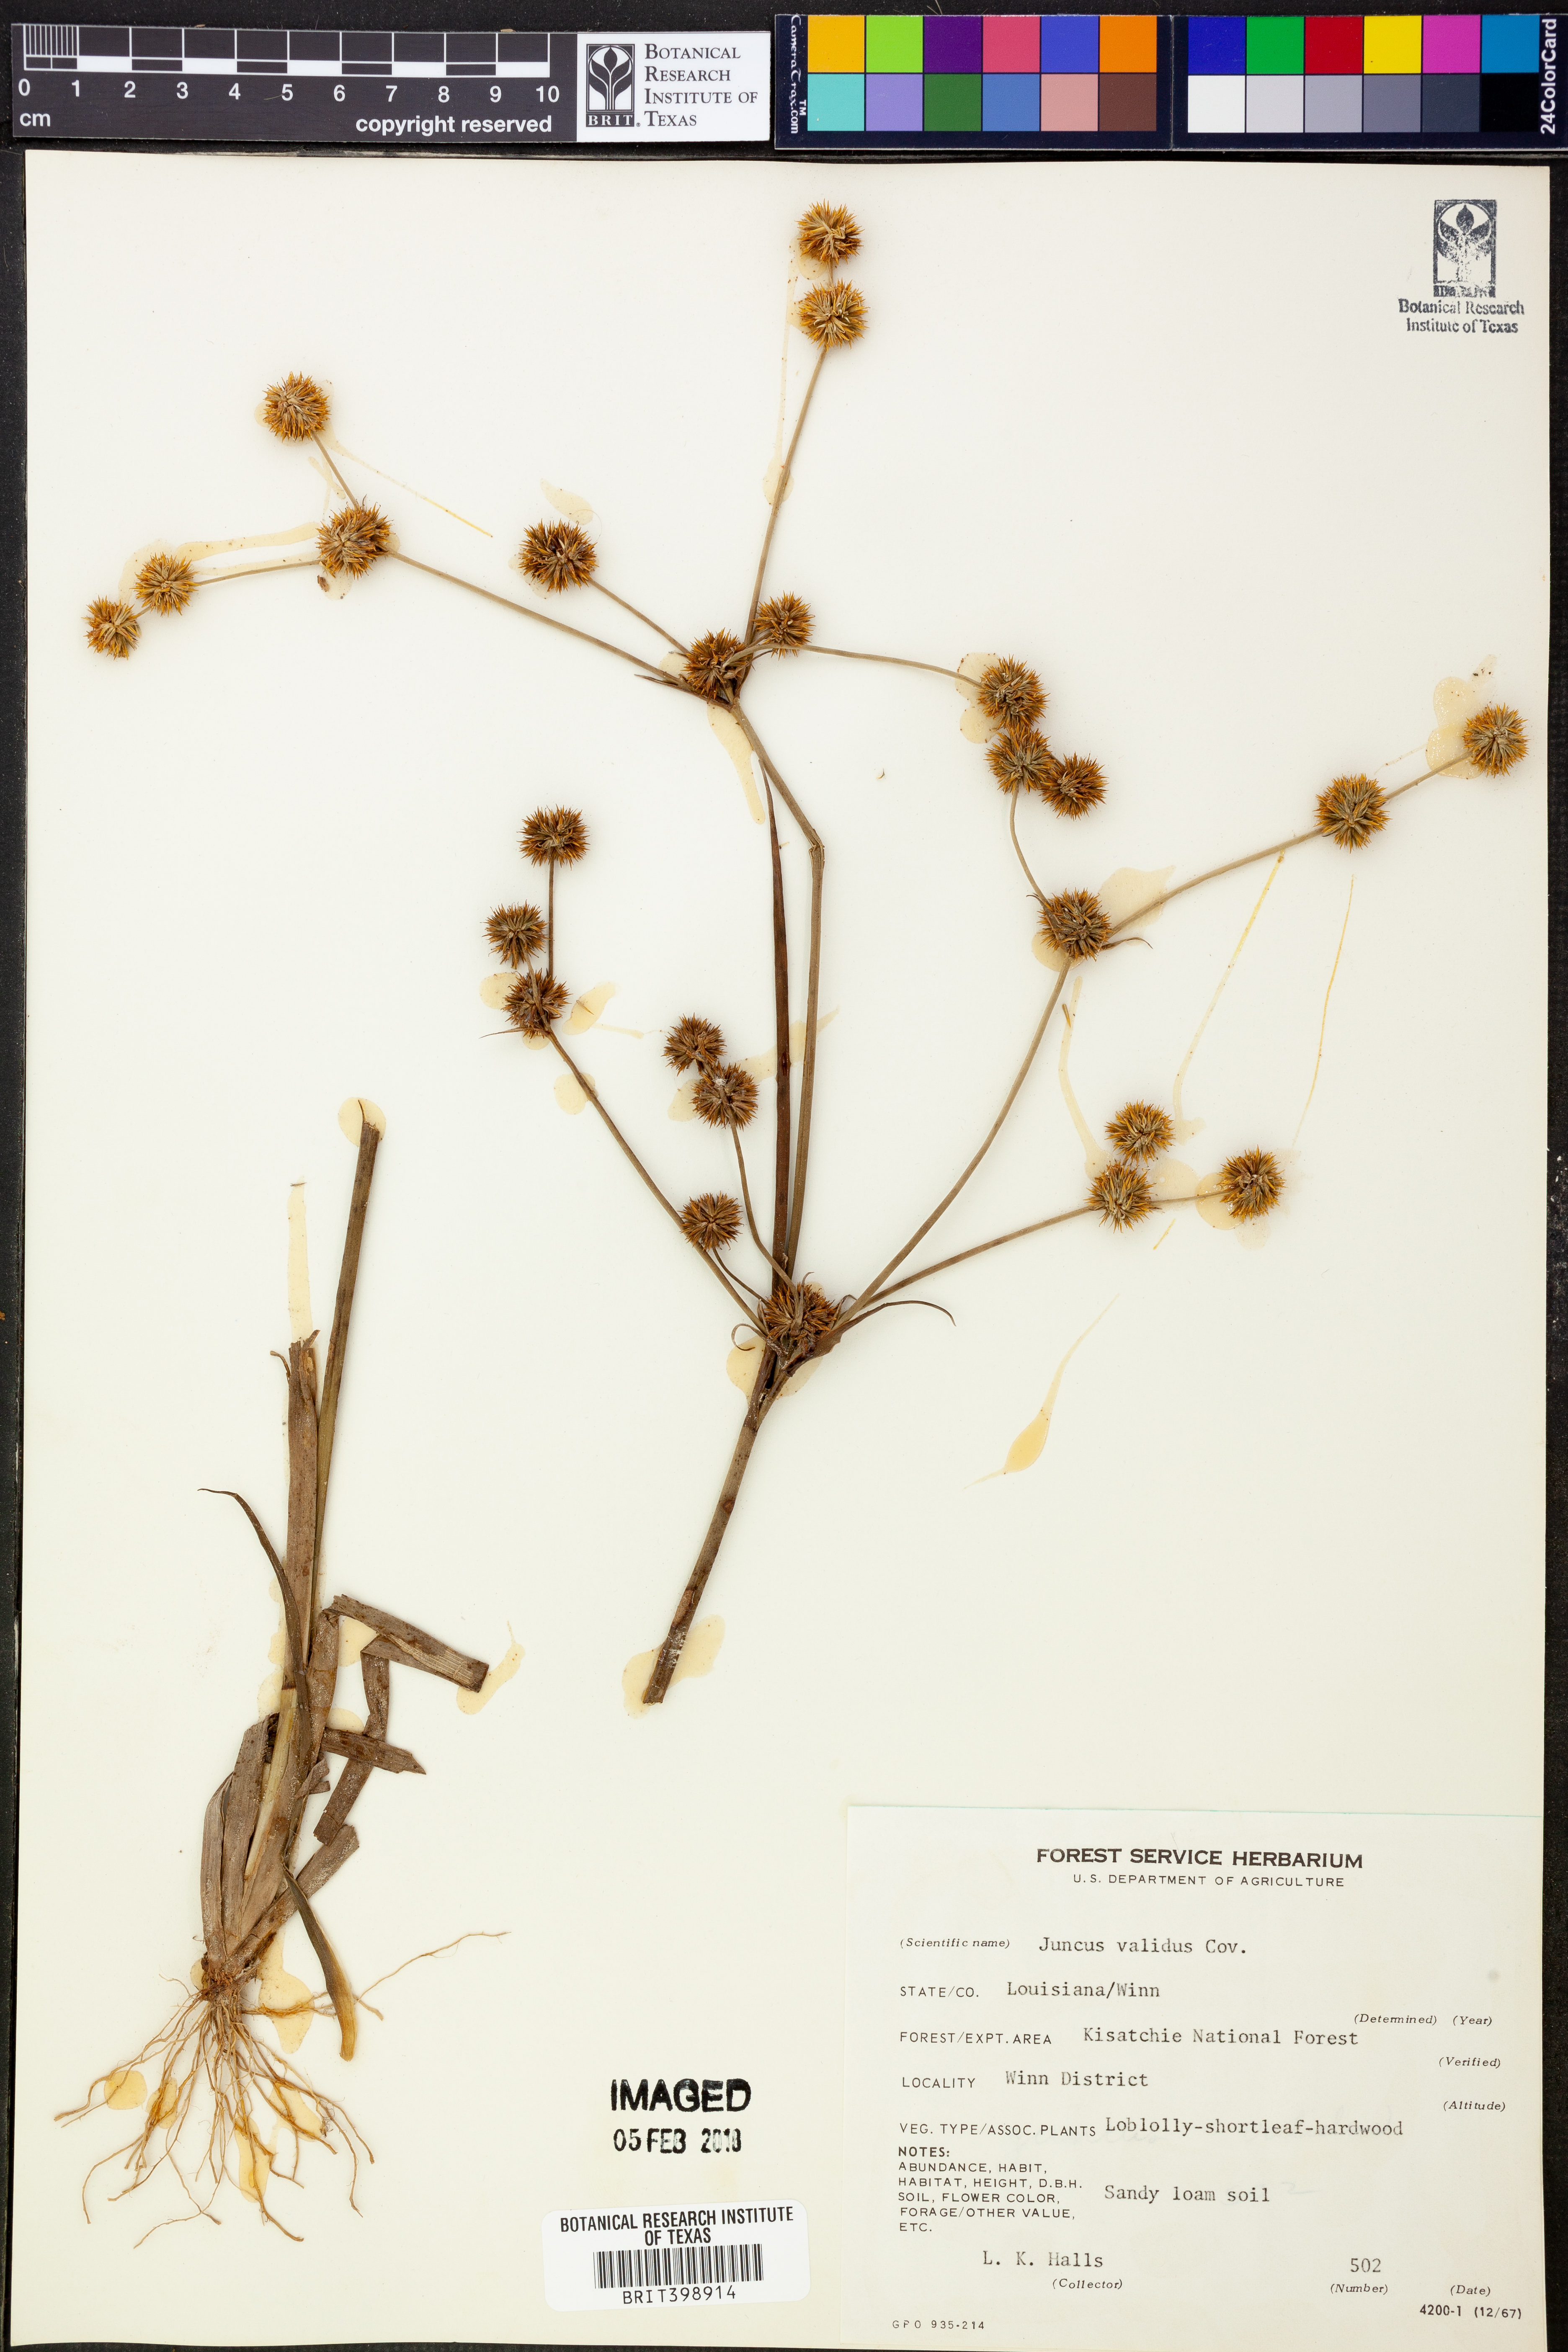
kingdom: Plantae
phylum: Tracheophyta
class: Liliopsida
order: Poales
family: Juncaceae
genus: Juncus
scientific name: Juncus validus
